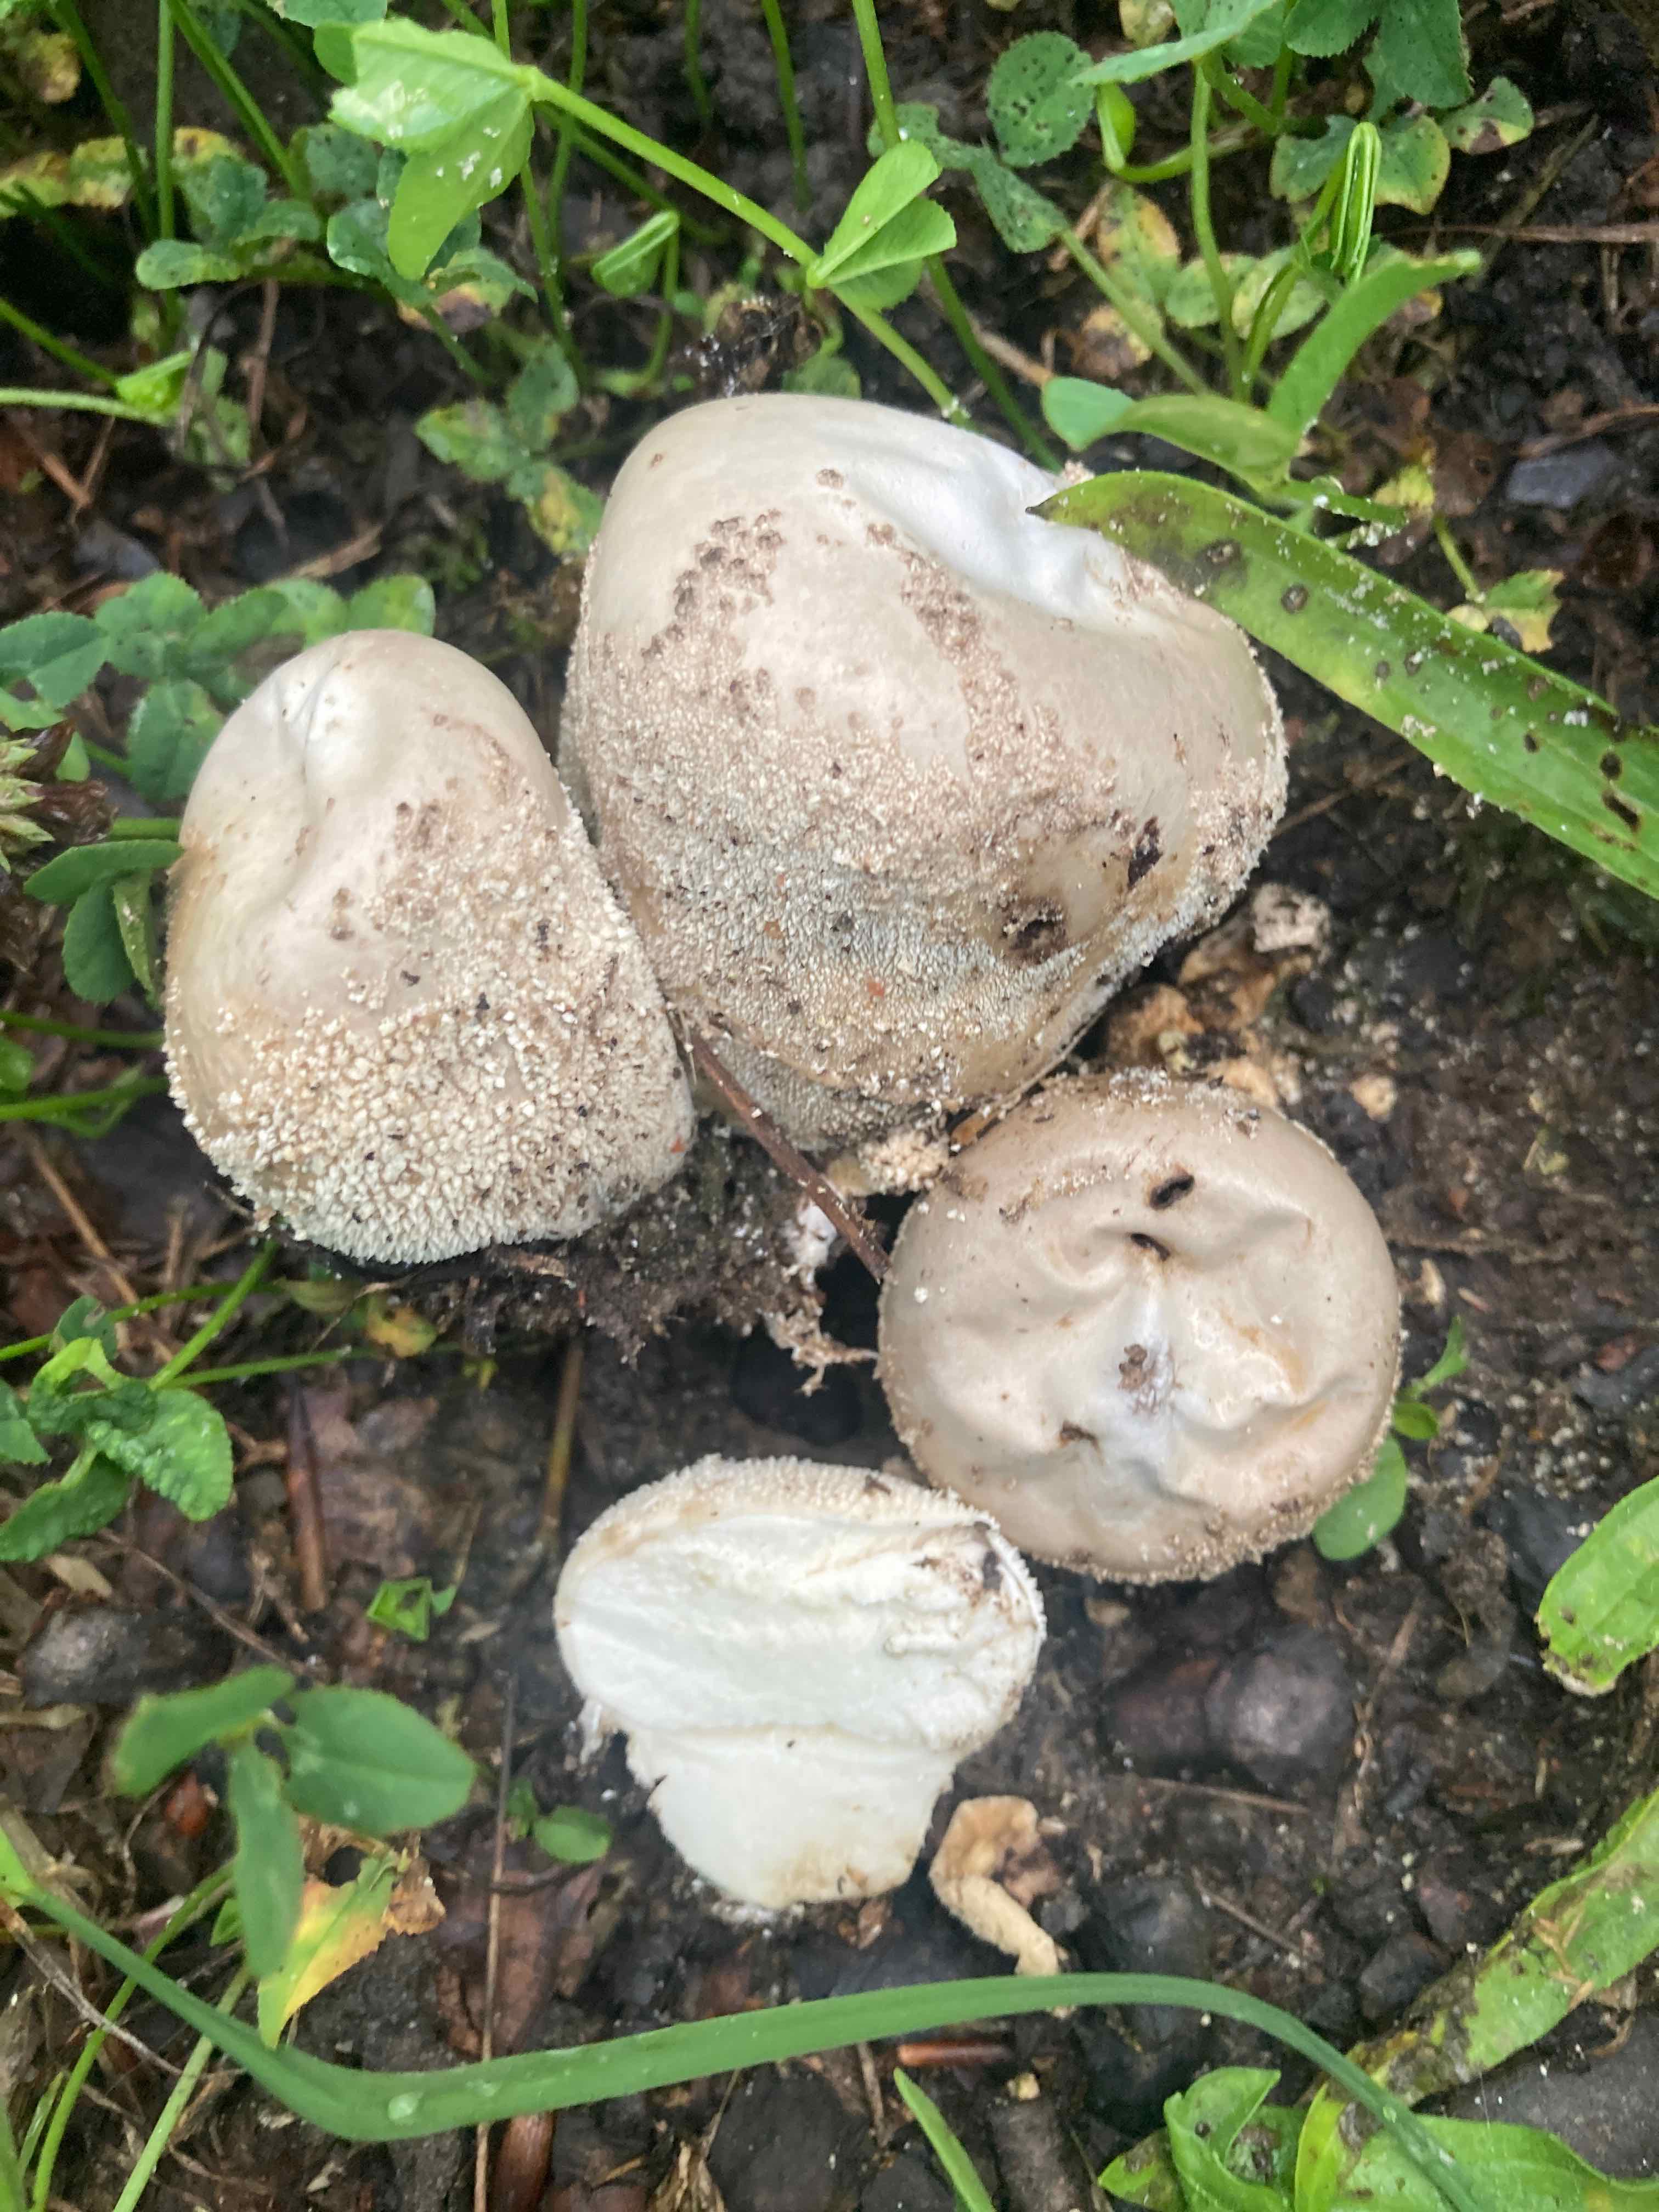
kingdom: Fungi
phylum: Basidiomycota
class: Agaricomycetes
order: Agaricales
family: Lycoperdaceae
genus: Lycoperdon
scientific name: Lycoperdon pratense
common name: flad støvbold
